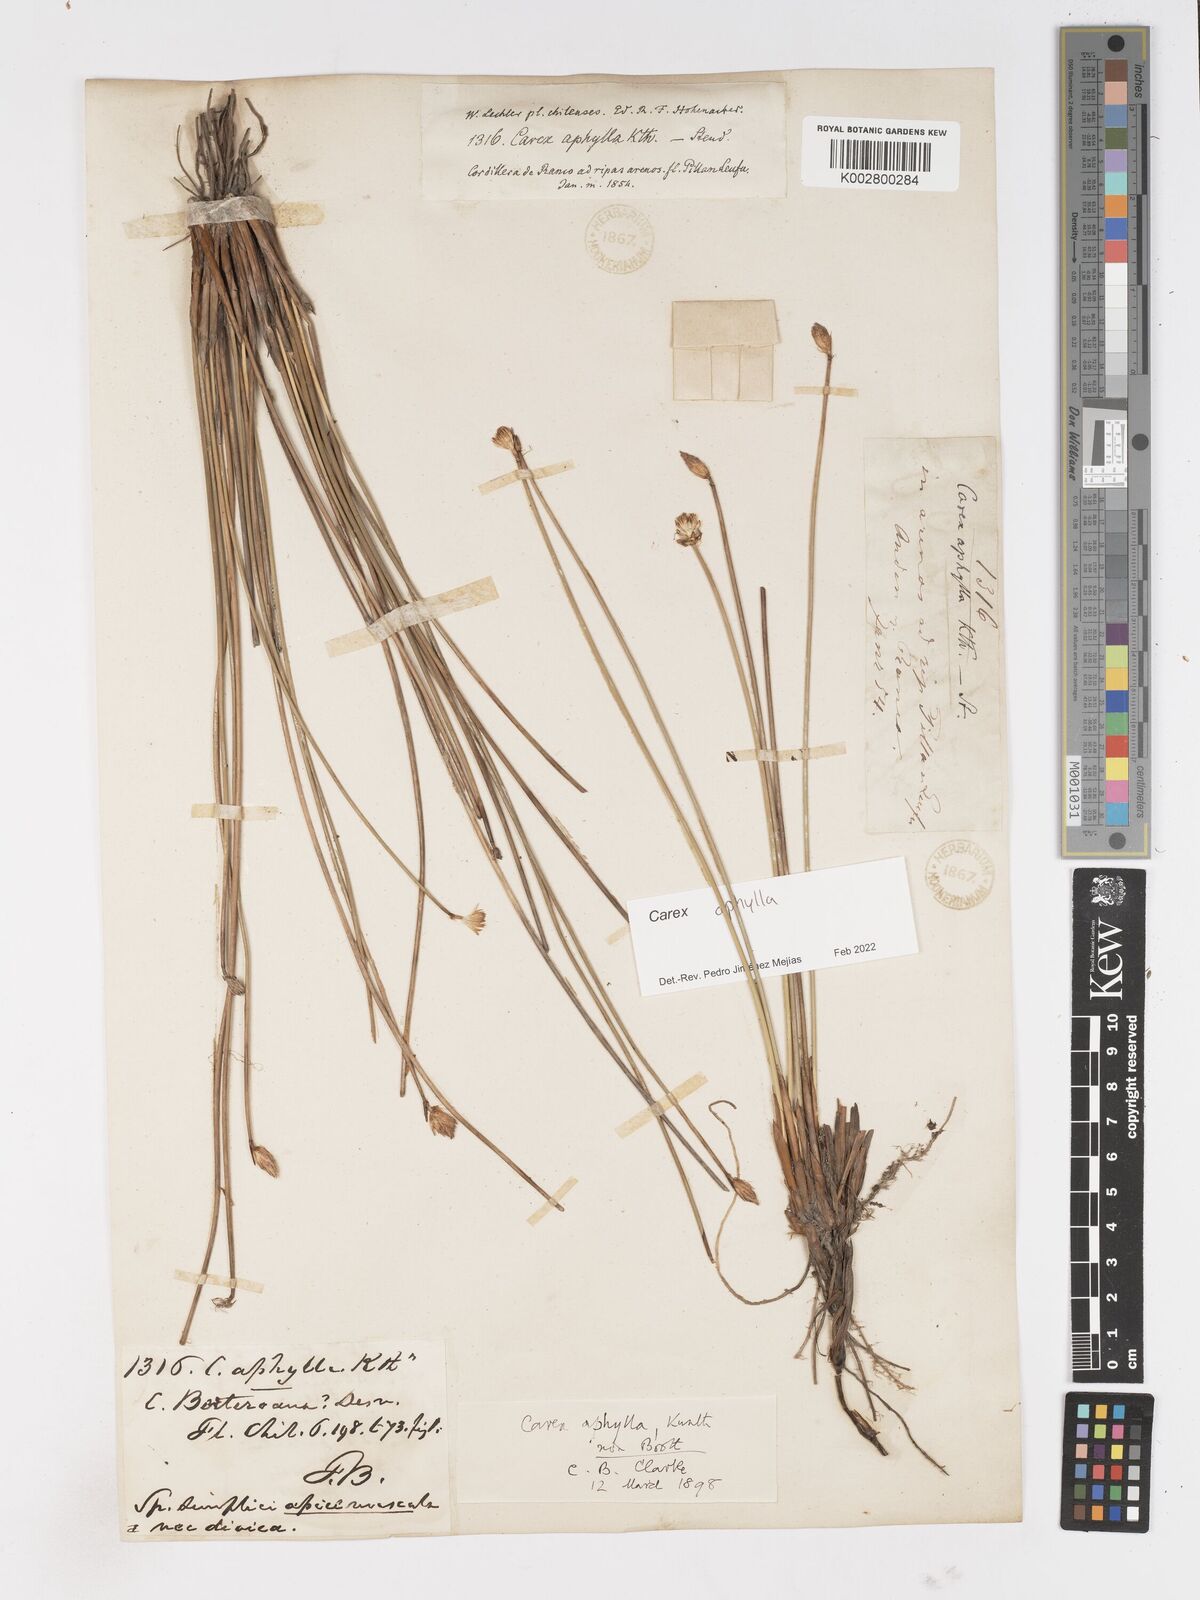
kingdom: Plantae
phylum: Tracheophyta
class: Liliopsida
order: Poales
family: Cyperaceae
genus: Carex
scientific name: Carex aphylla
